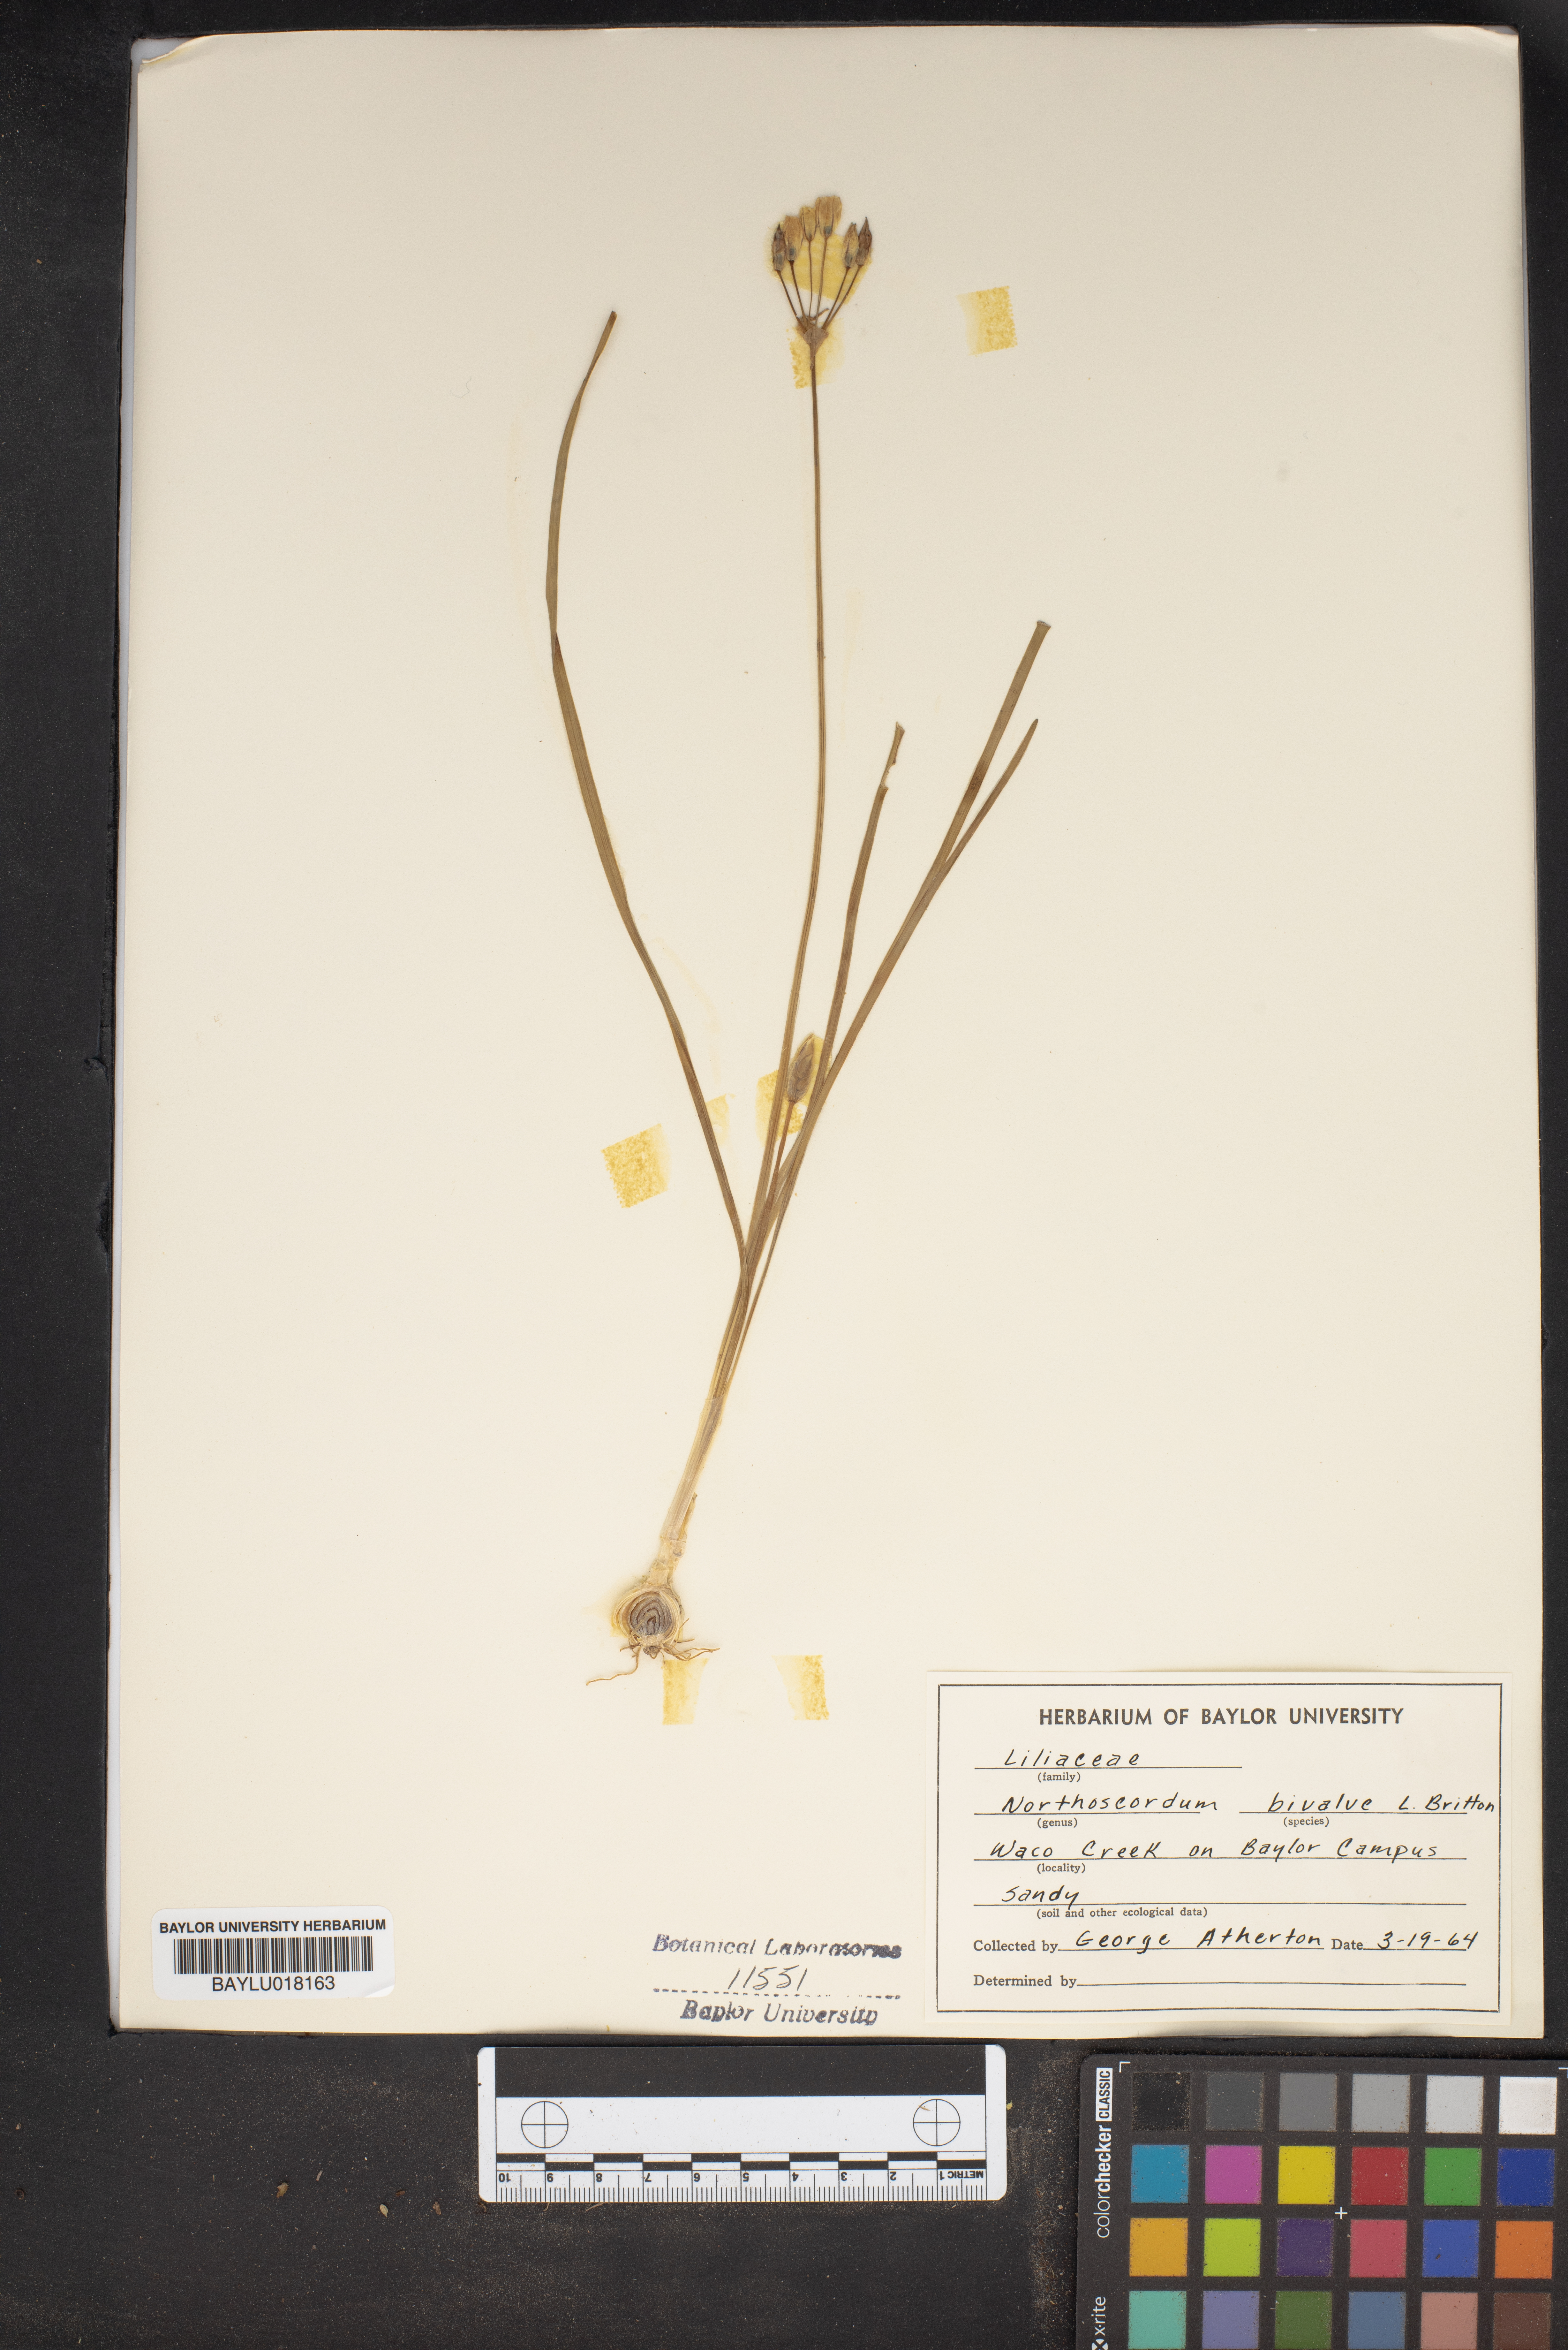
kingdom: Plantae
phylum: Tracheophyta
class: Liliopsida
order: Asparagales
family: Amaryllidaceae
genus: Nothoscordum
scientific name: Nothoscordum bivalve
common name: Crow-poison
